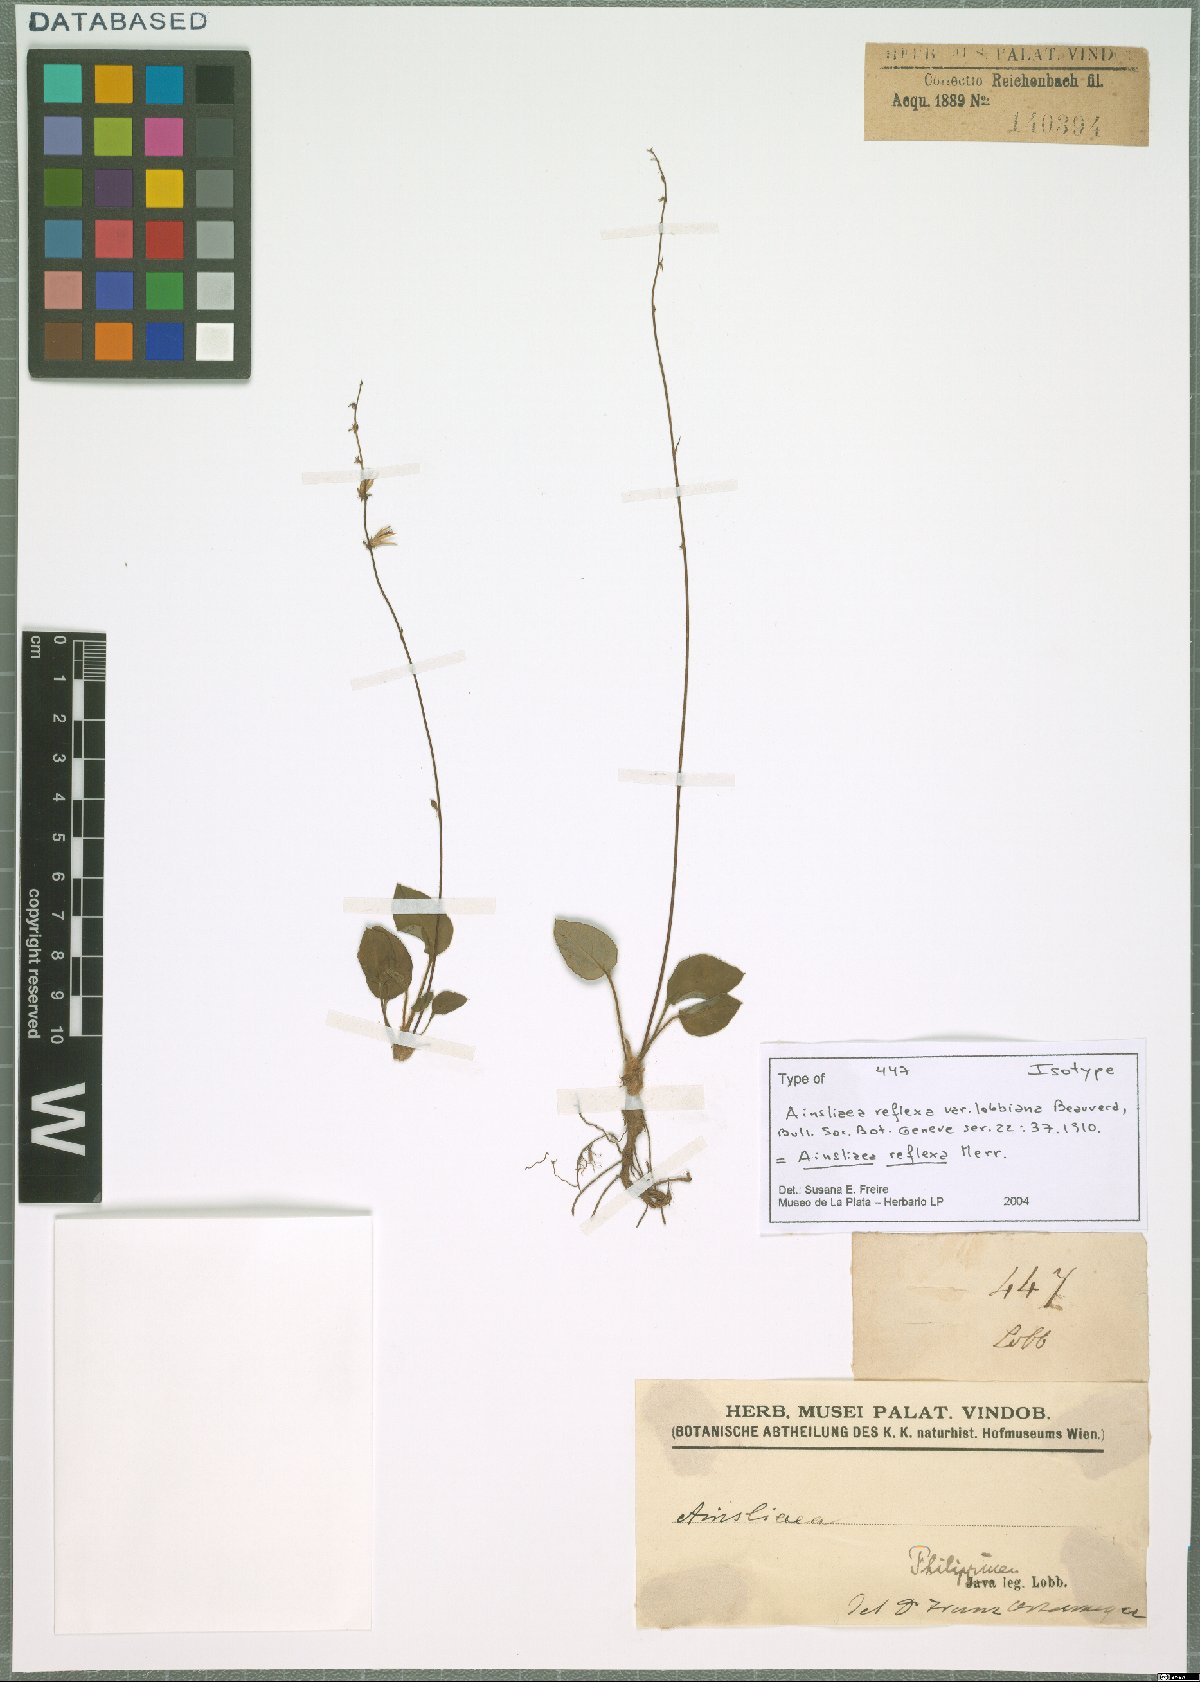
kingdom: Plantae
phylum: Tracheophyta
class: Magnoliopsida
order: Asterales
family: Asteraceae
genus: Ainsliaea
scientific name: Ainsliaea reflexa
